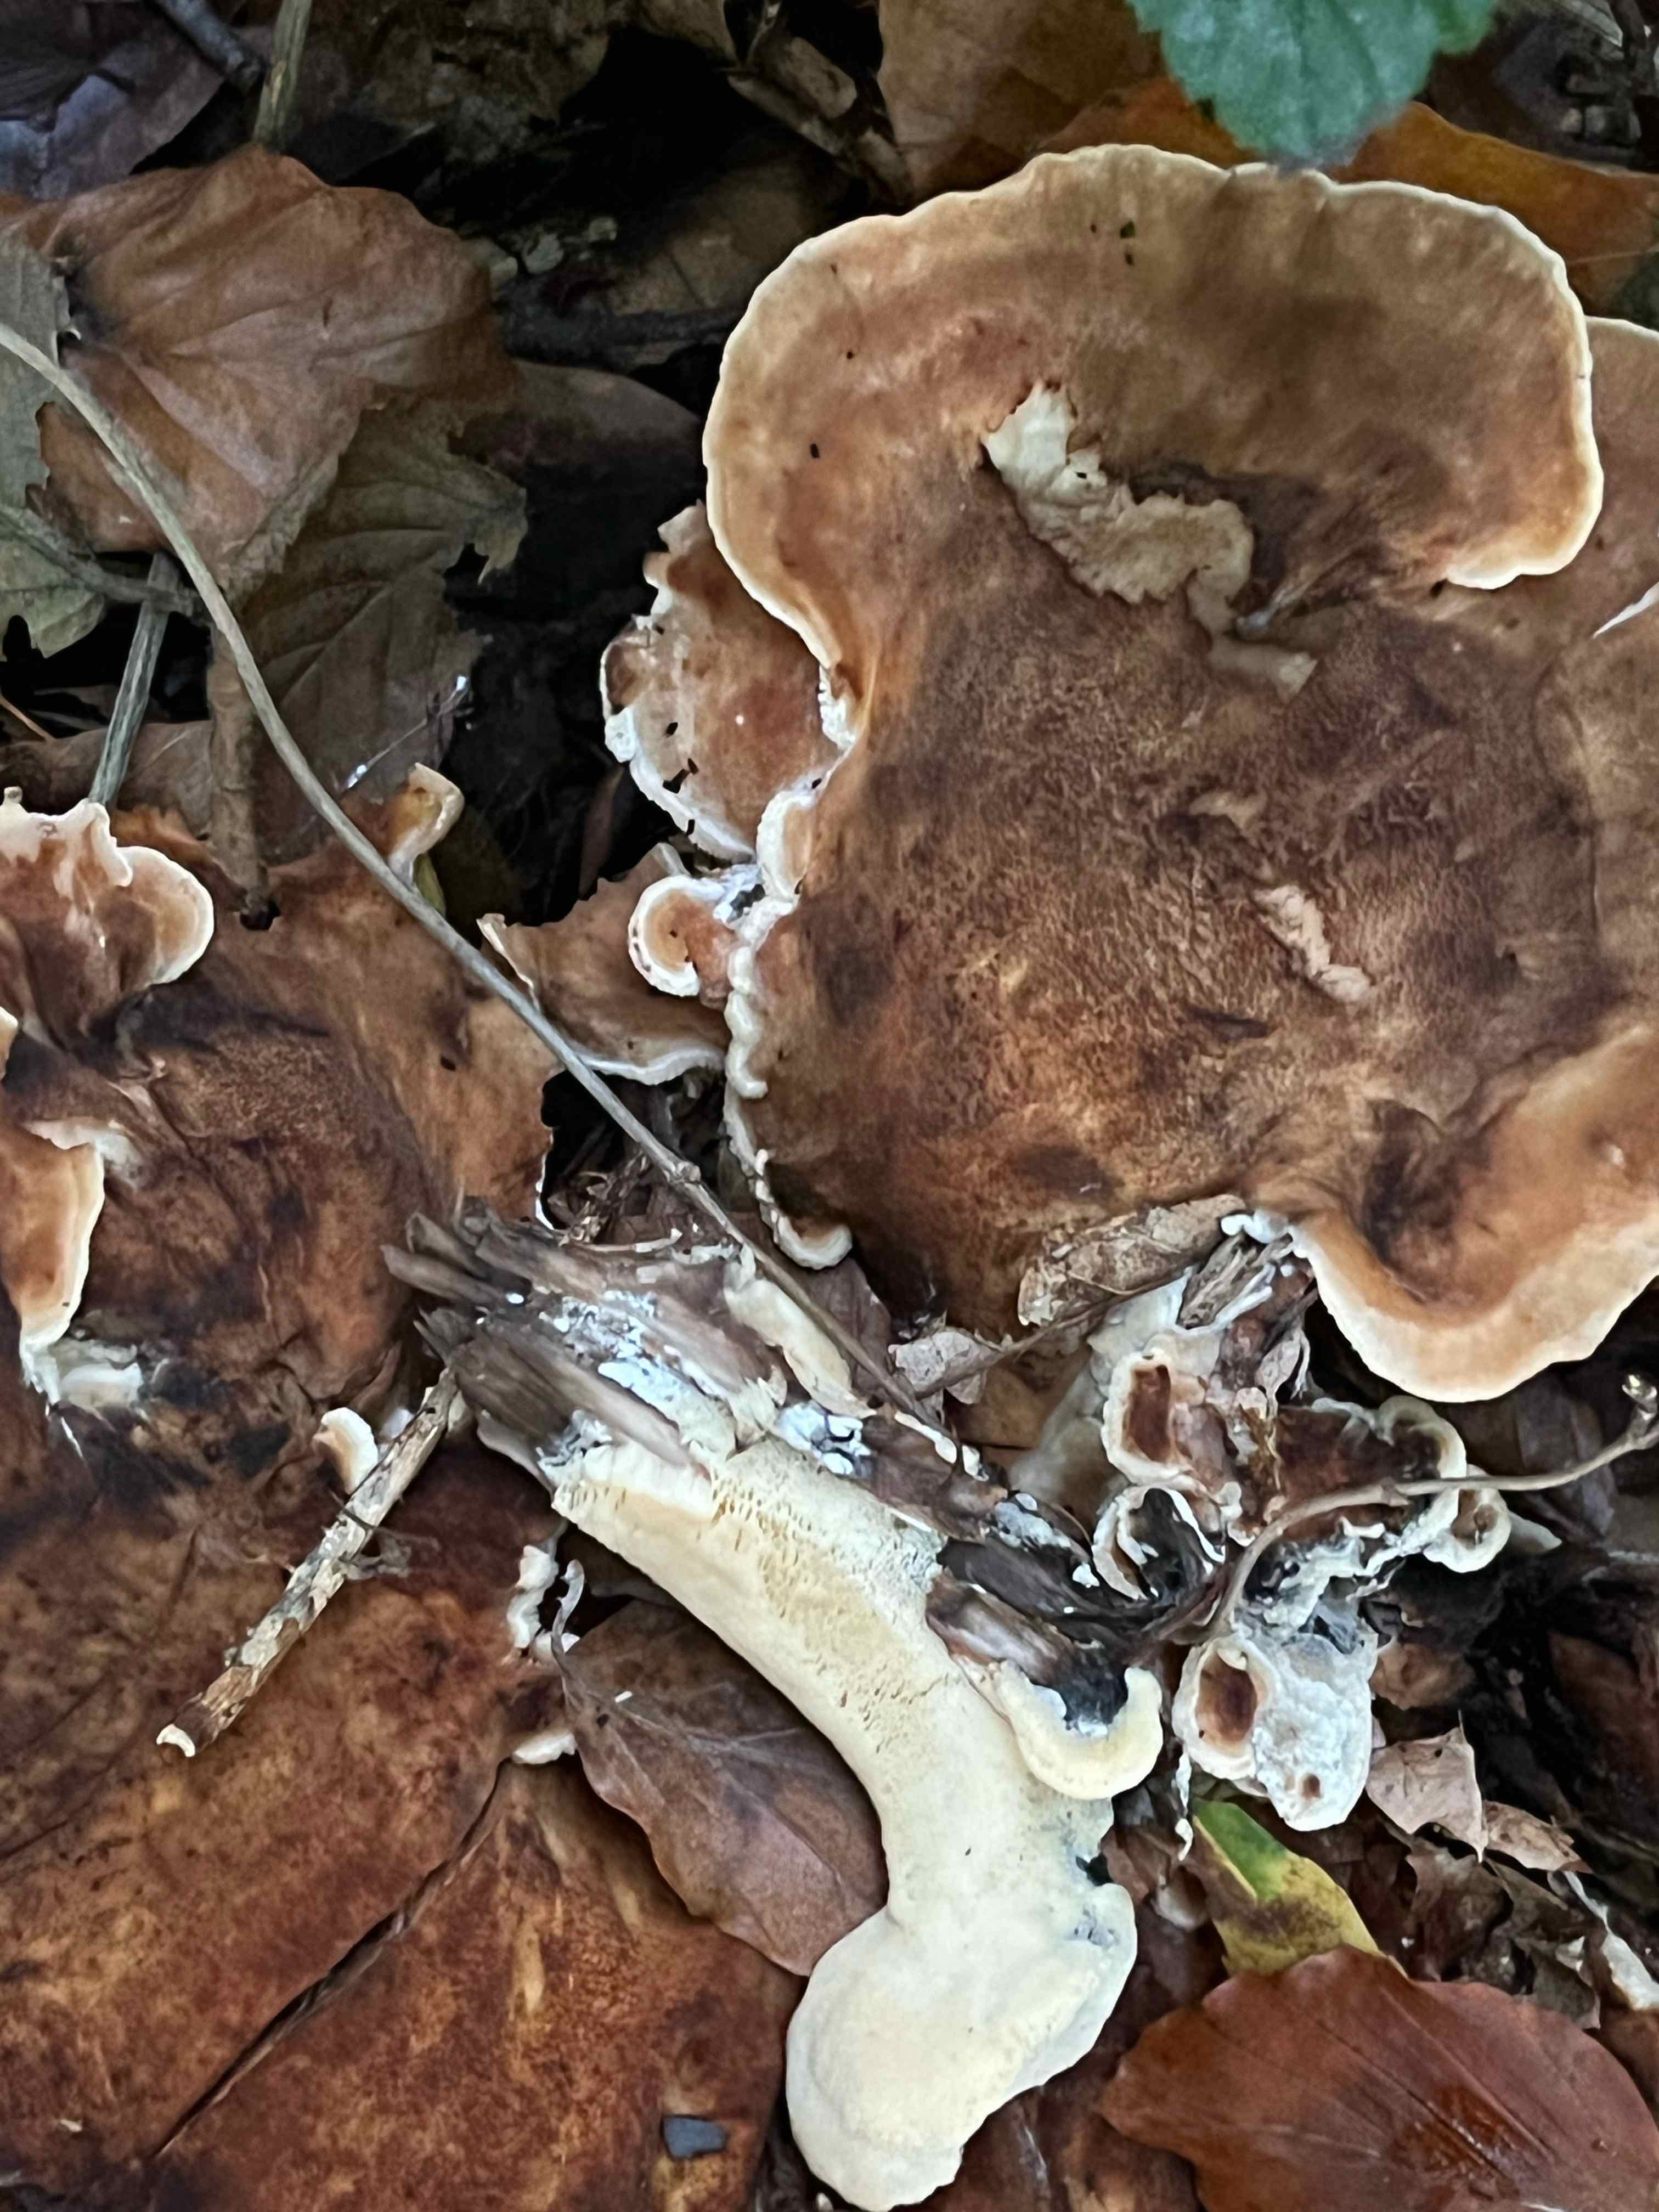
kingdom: Fungi
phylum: Basidiomycota
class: Agaricomycetes
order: Polyporales
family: Meripilaceae
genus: Meripilus
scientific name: Meripilus giganteus
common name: kæmpeporesvamp
